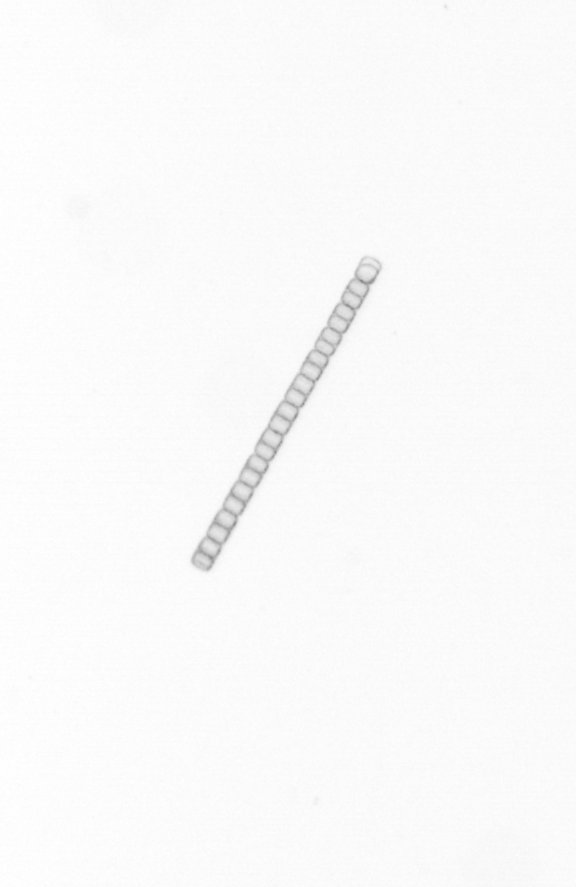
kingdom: Chromista
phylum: Ochrophyta
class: Bacillariophyceae
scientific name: Bacillariophyceae
